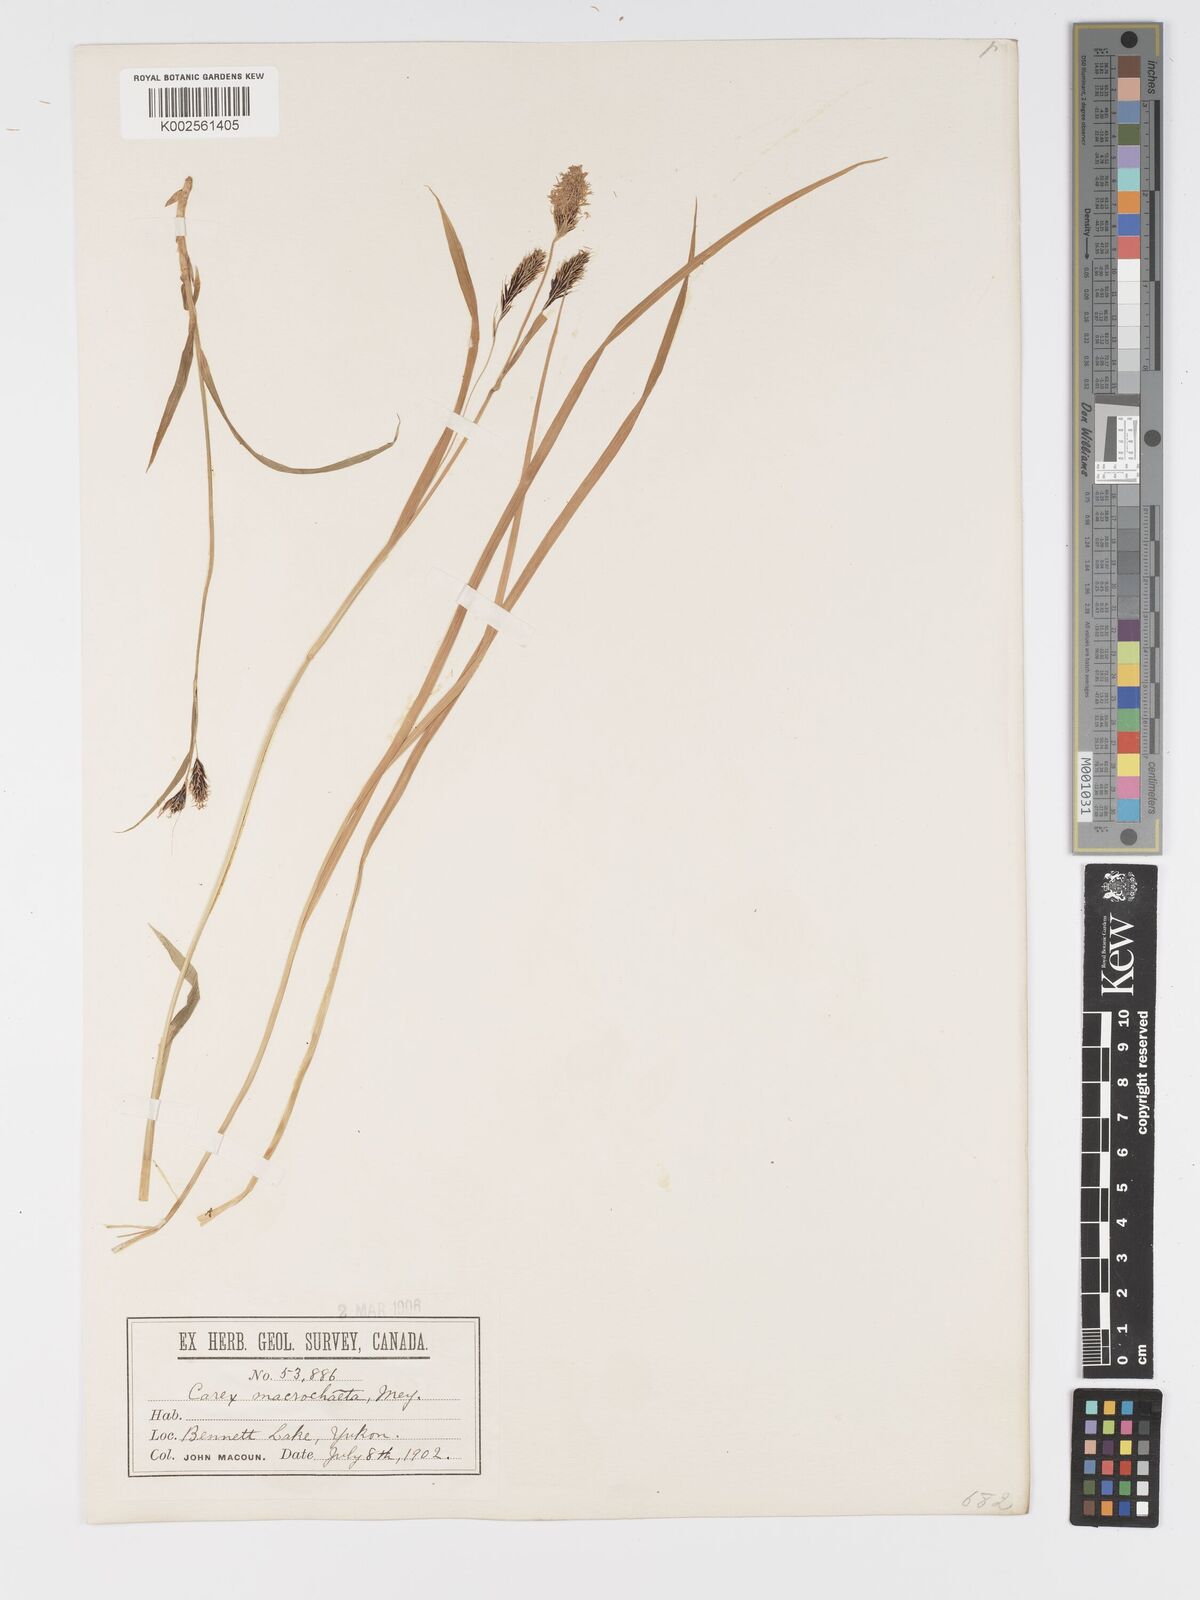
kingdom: Plantae
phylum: Tracheophyta
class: Liliopsida
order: Poales
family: Cyperaceae
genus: Carex
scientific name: Carex macrochaeta
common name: Alaska large awn sedge
